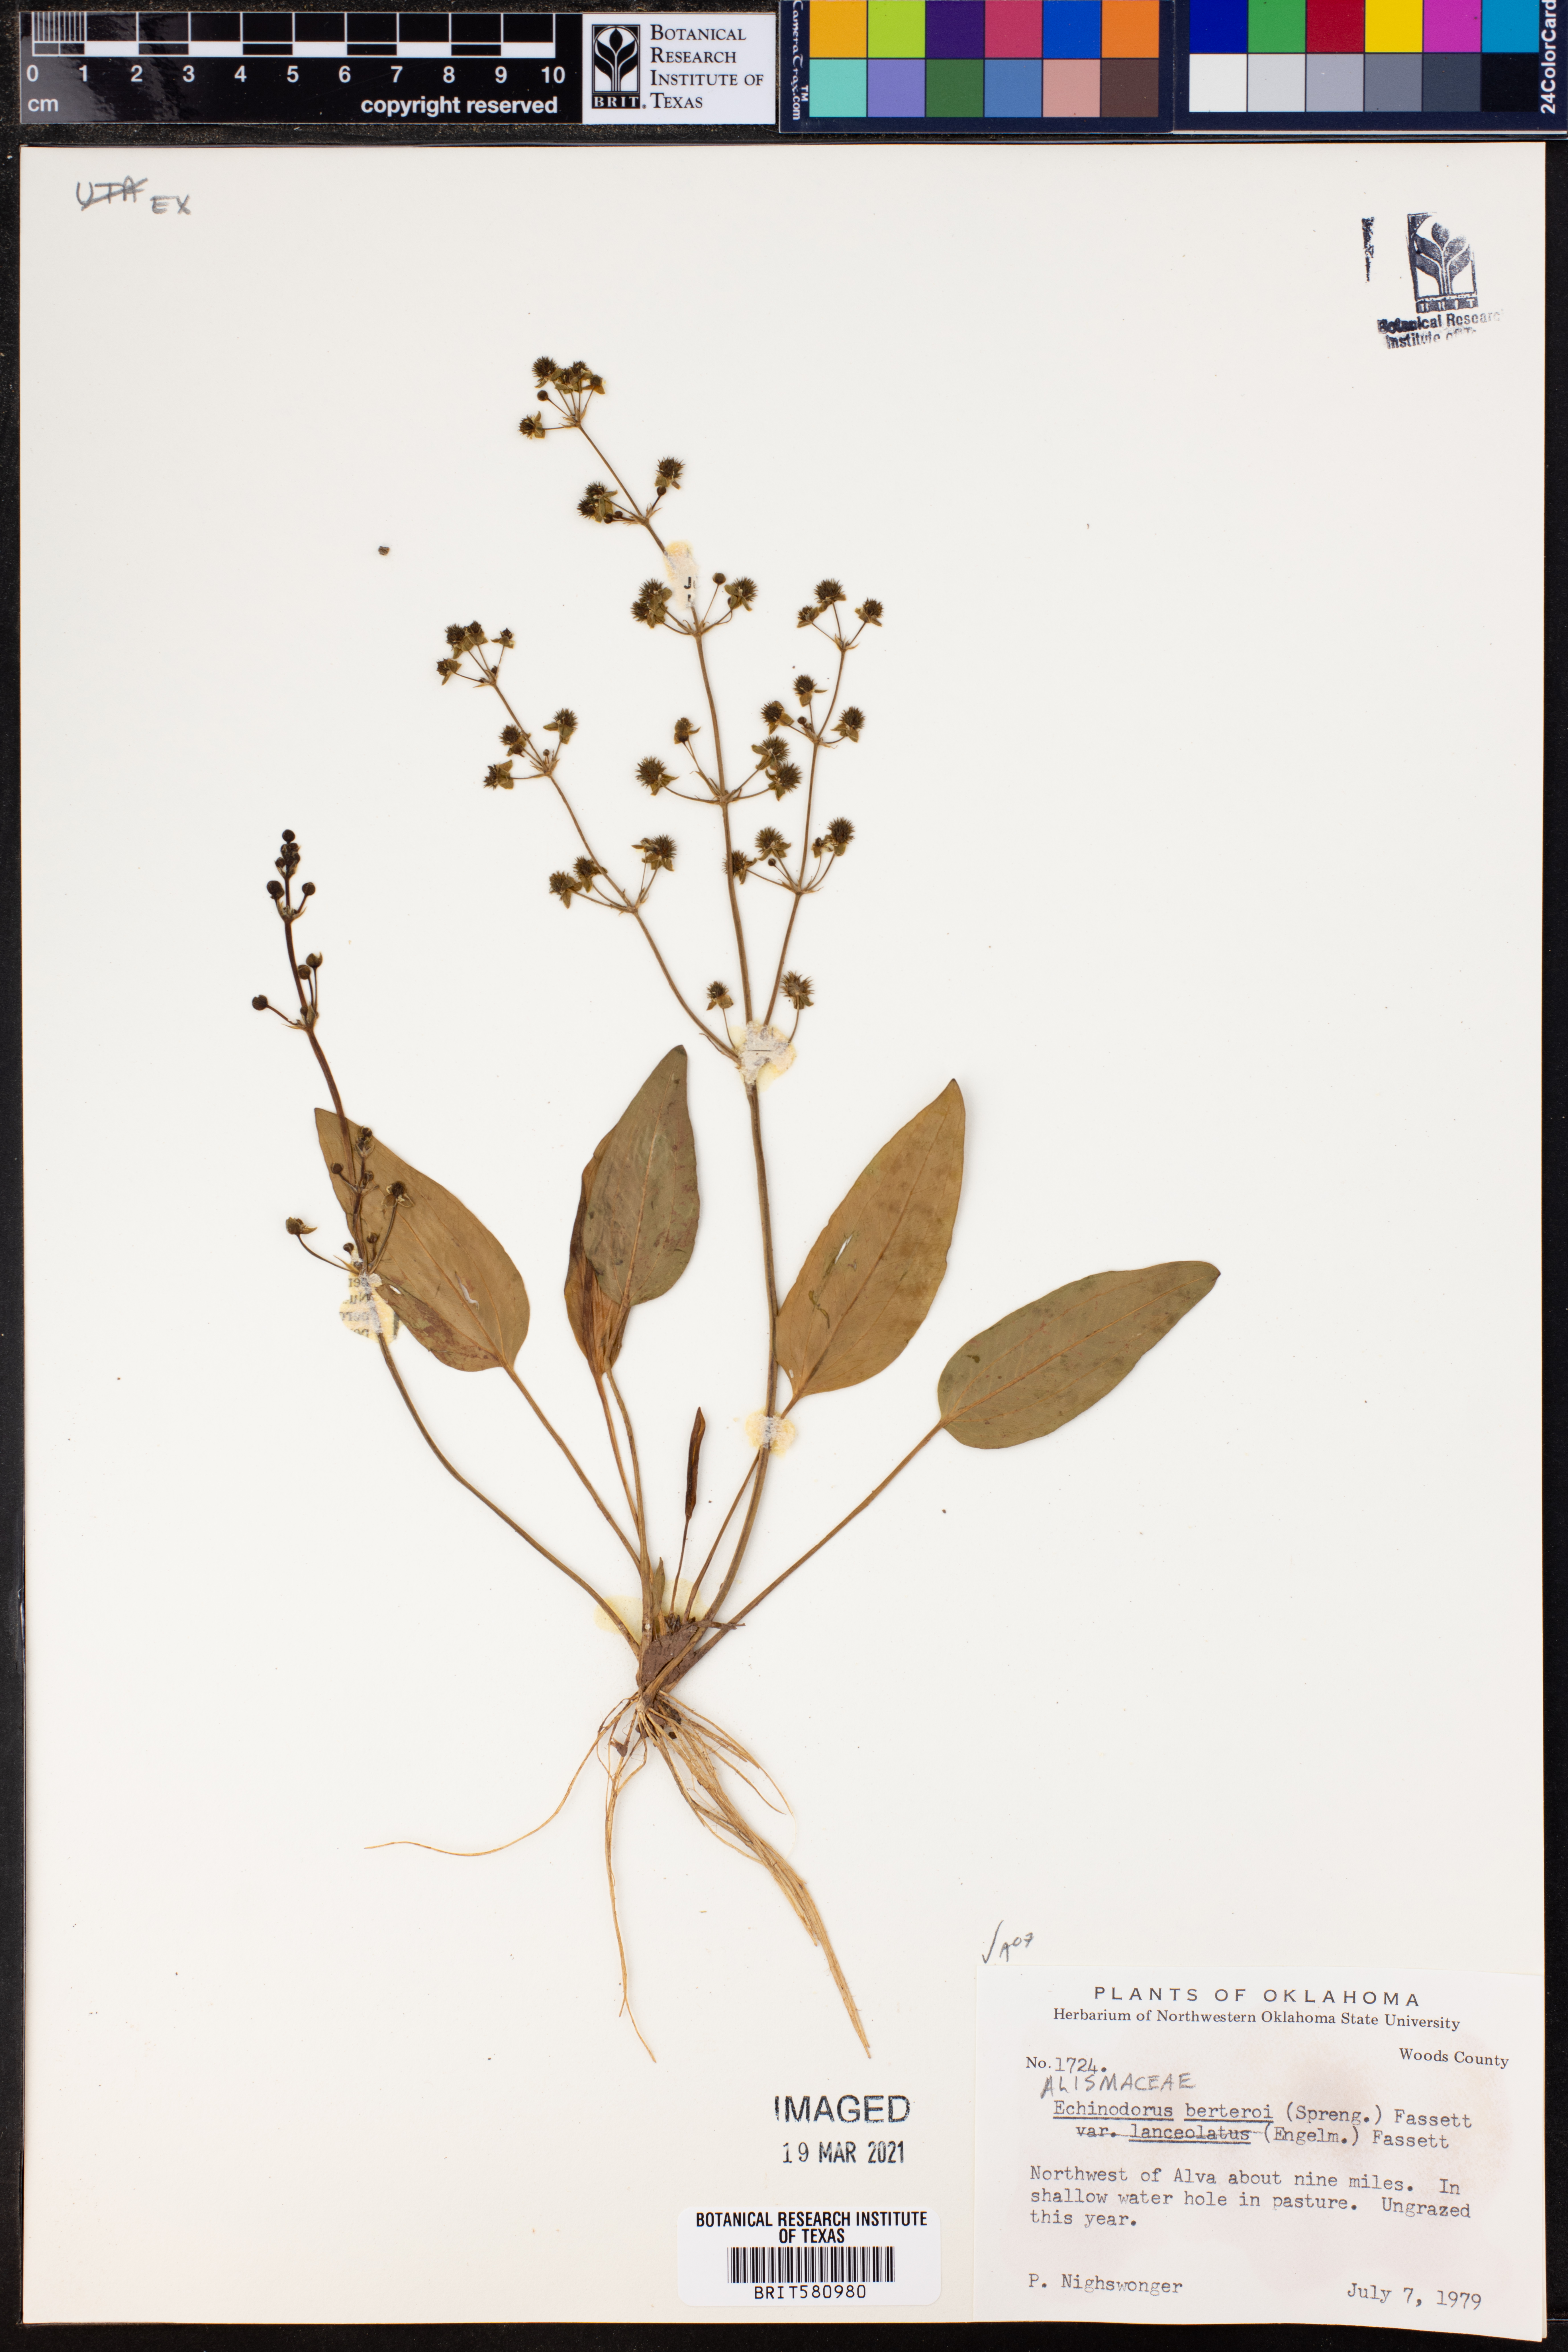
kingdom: Plantae
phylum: Tracheophyta
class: Liliopsida
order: Alismatales
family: Alismataceae
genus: Echinodorus
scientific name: Echinodorus berteroi
